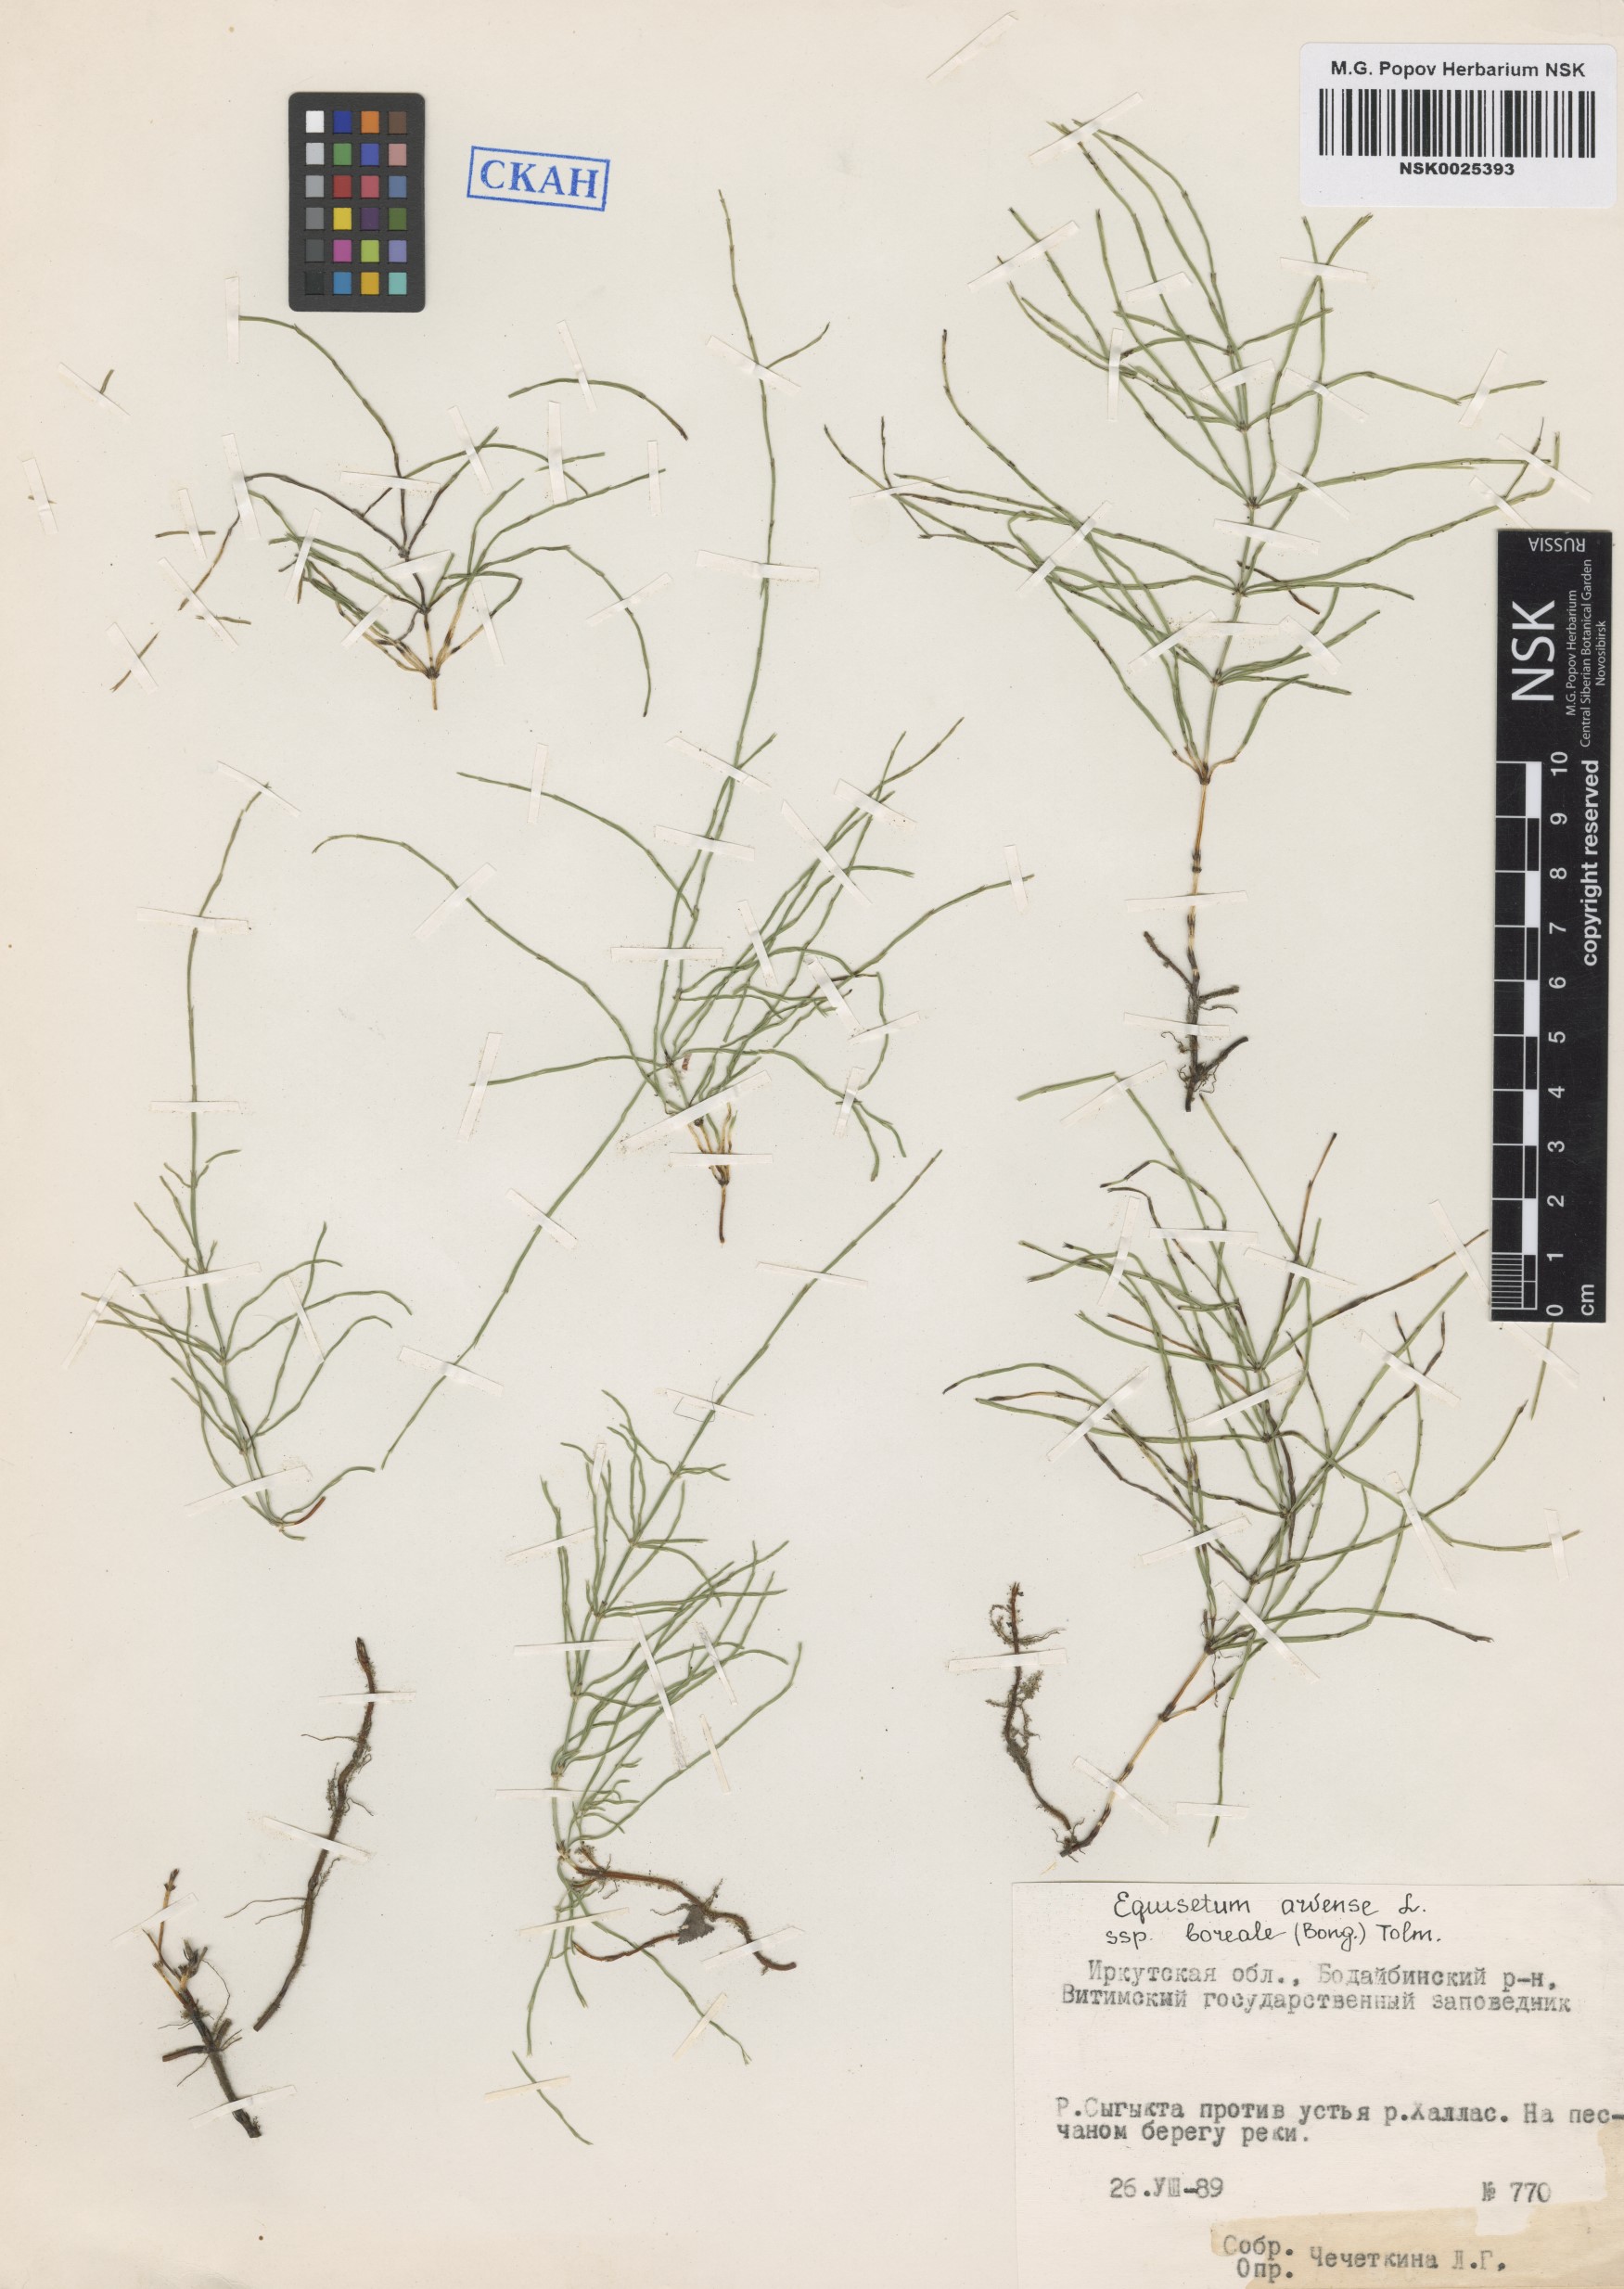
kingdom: Plantae
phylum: Tracheophyta
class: Polypodiopsida
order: Equisetales
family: Equisetaceae
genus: Equisetum
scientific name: Equisetum arvense
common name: Field horsetail
